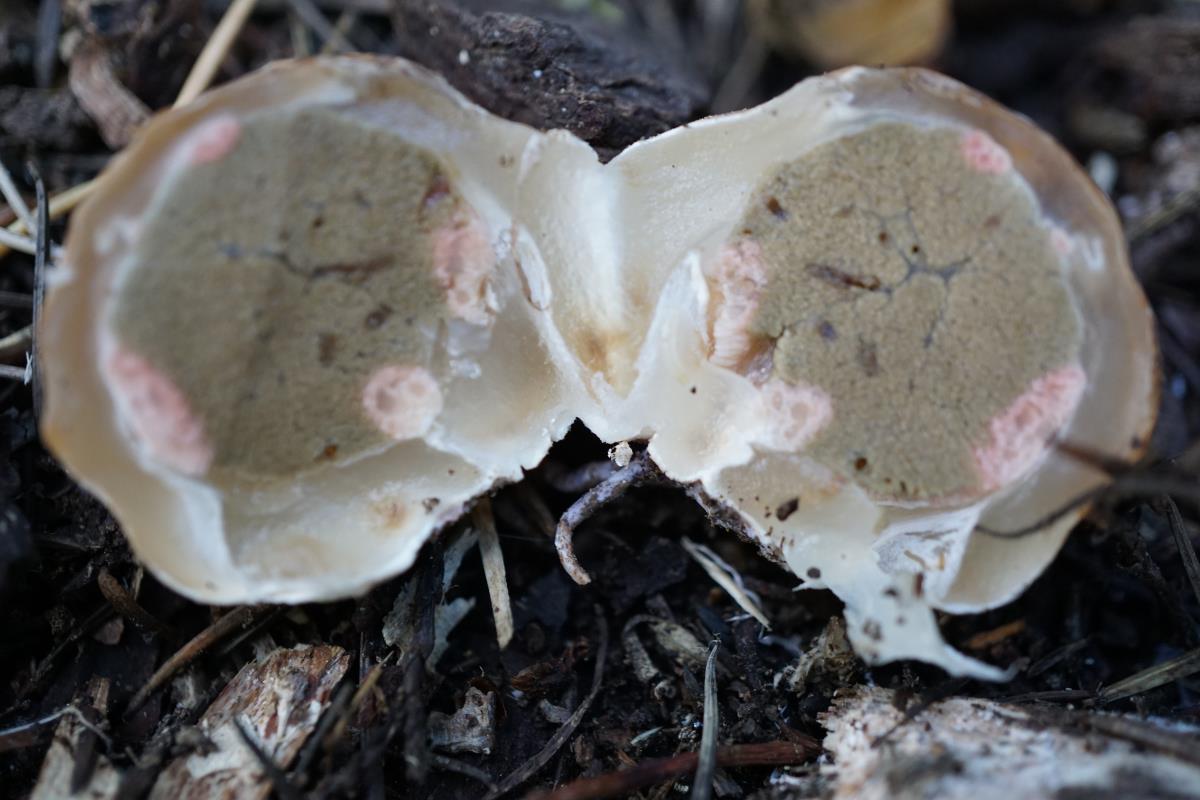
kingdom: Fungi
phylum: Basidiomycota
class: Agaricomycetes
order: Phallales
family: Phallaceae
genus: Clathrus
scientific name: Clathrus archeri
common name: Devil's fingers
